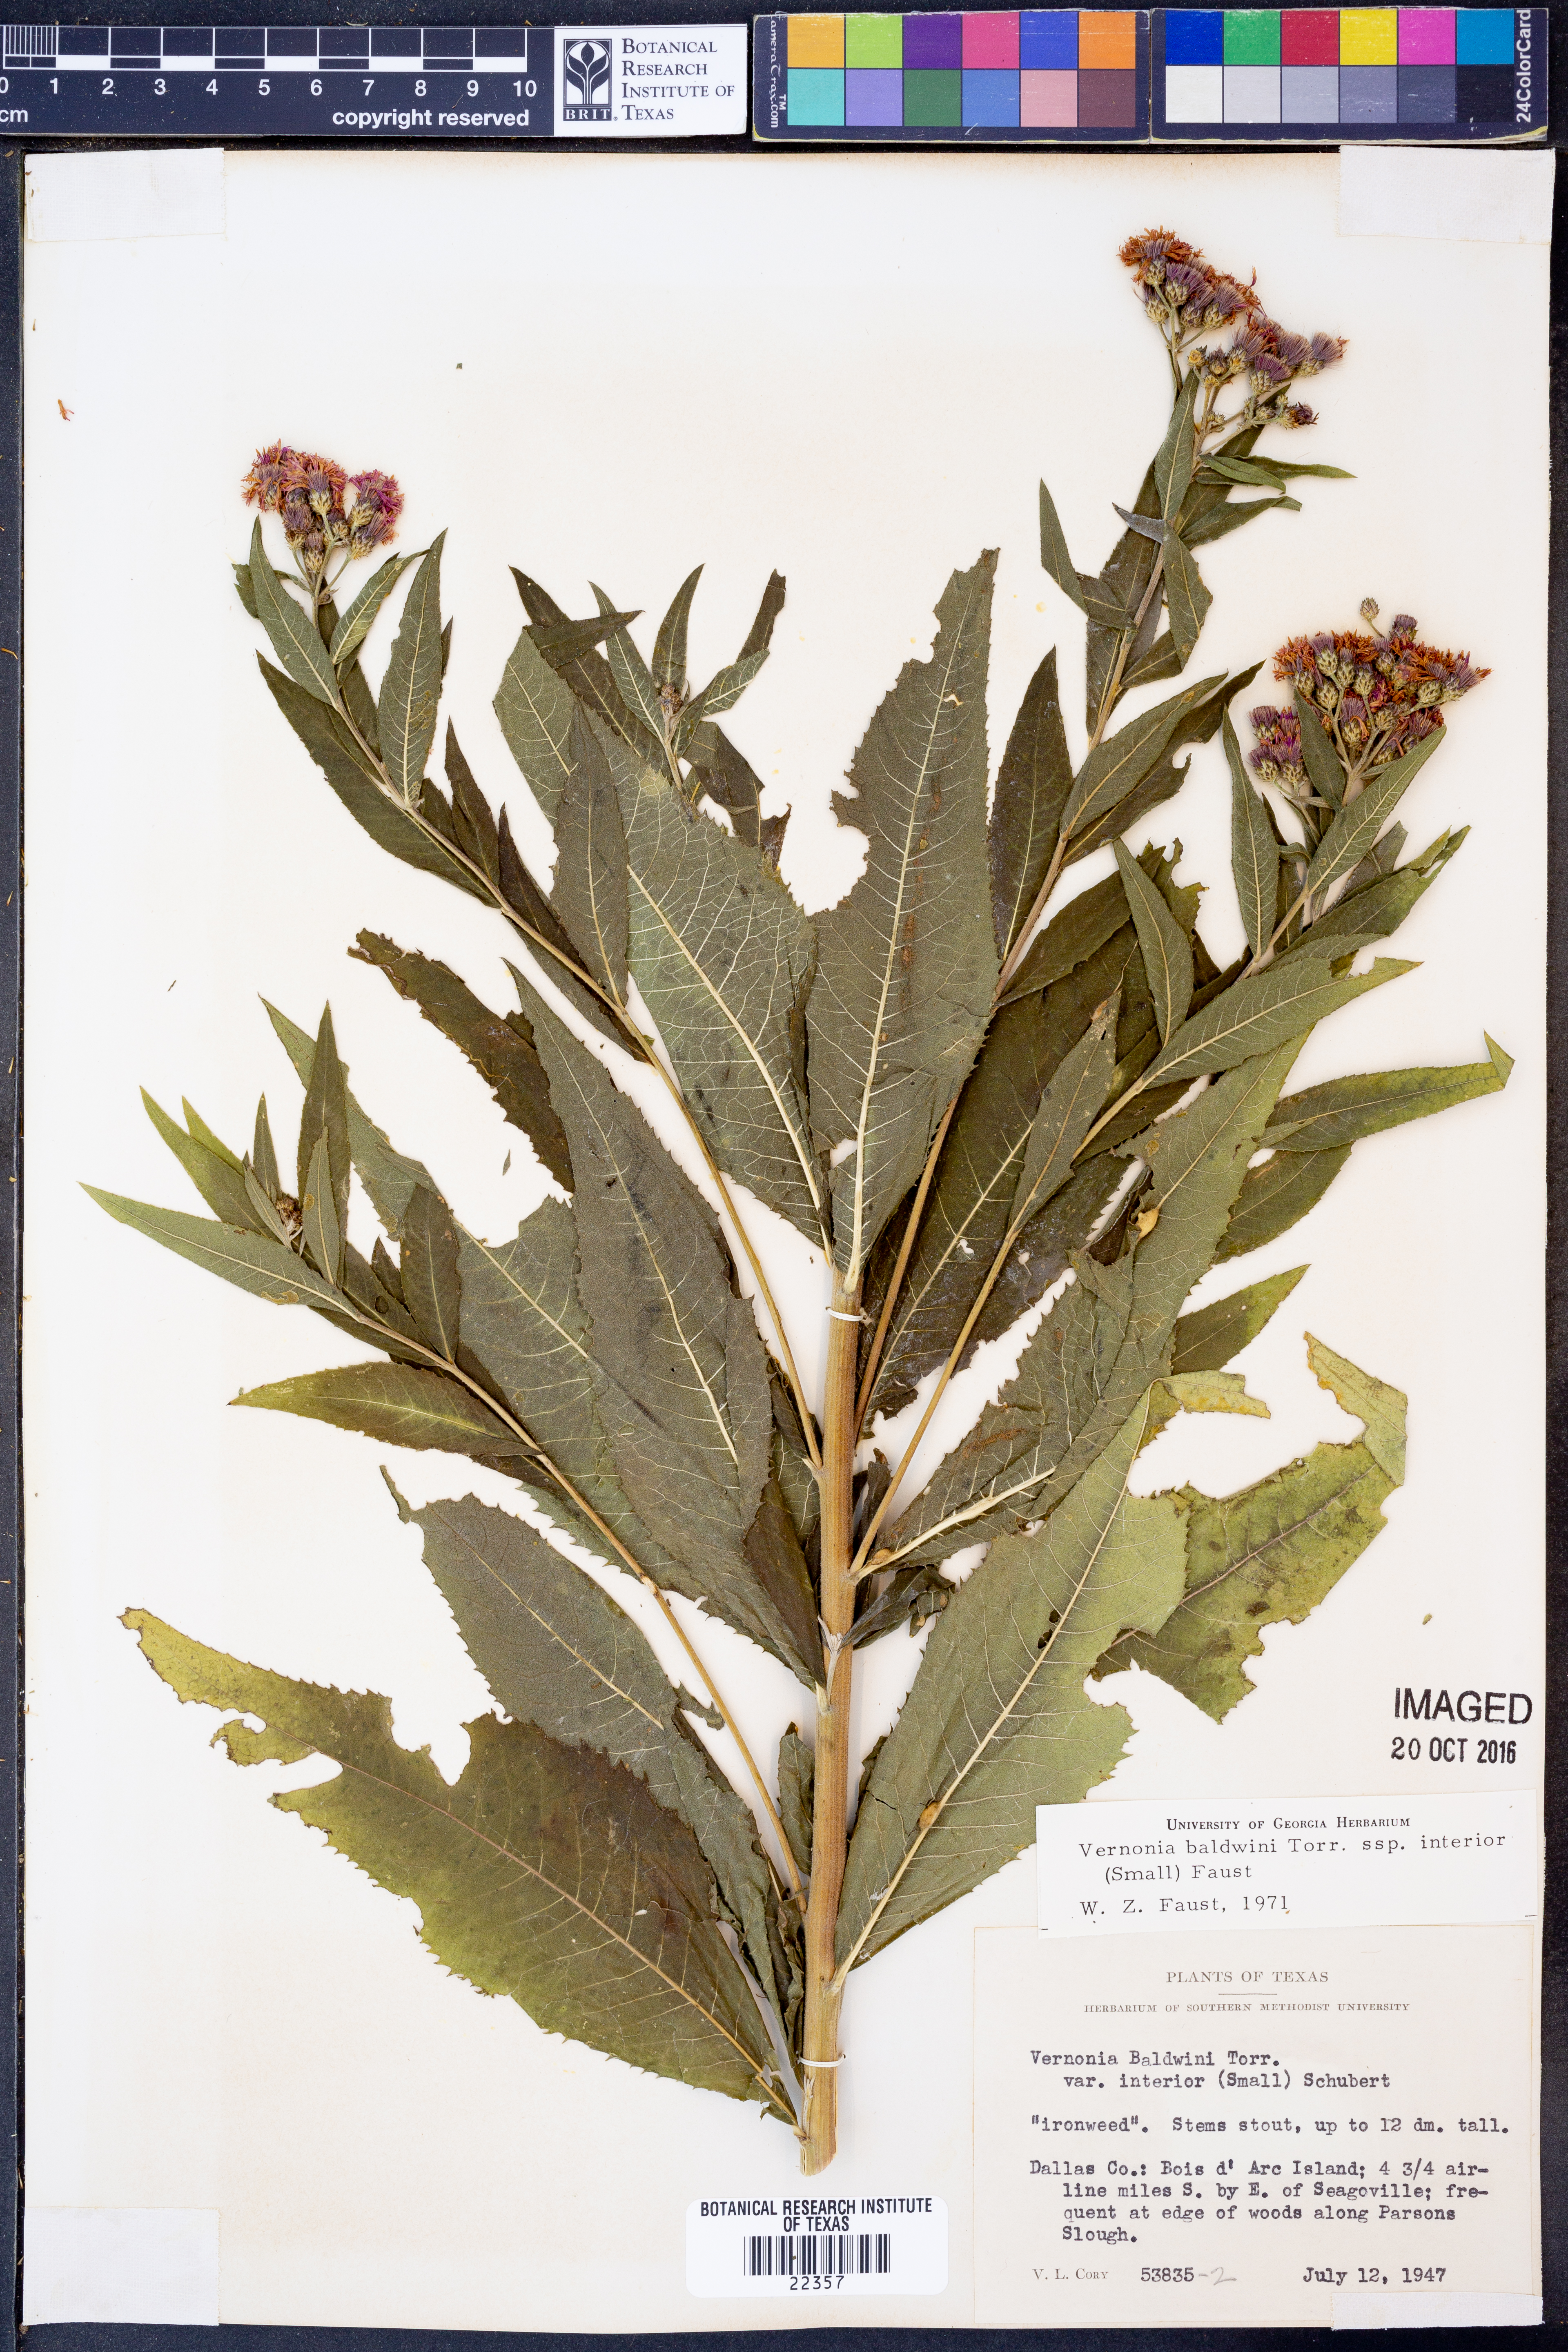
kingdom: Plantae
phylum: Tracheophyta
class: Magnoliopsida
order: Asterales
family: Asteraceae
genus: Vernonia
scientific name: Vernonia baldwinii
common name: Western ironweed
